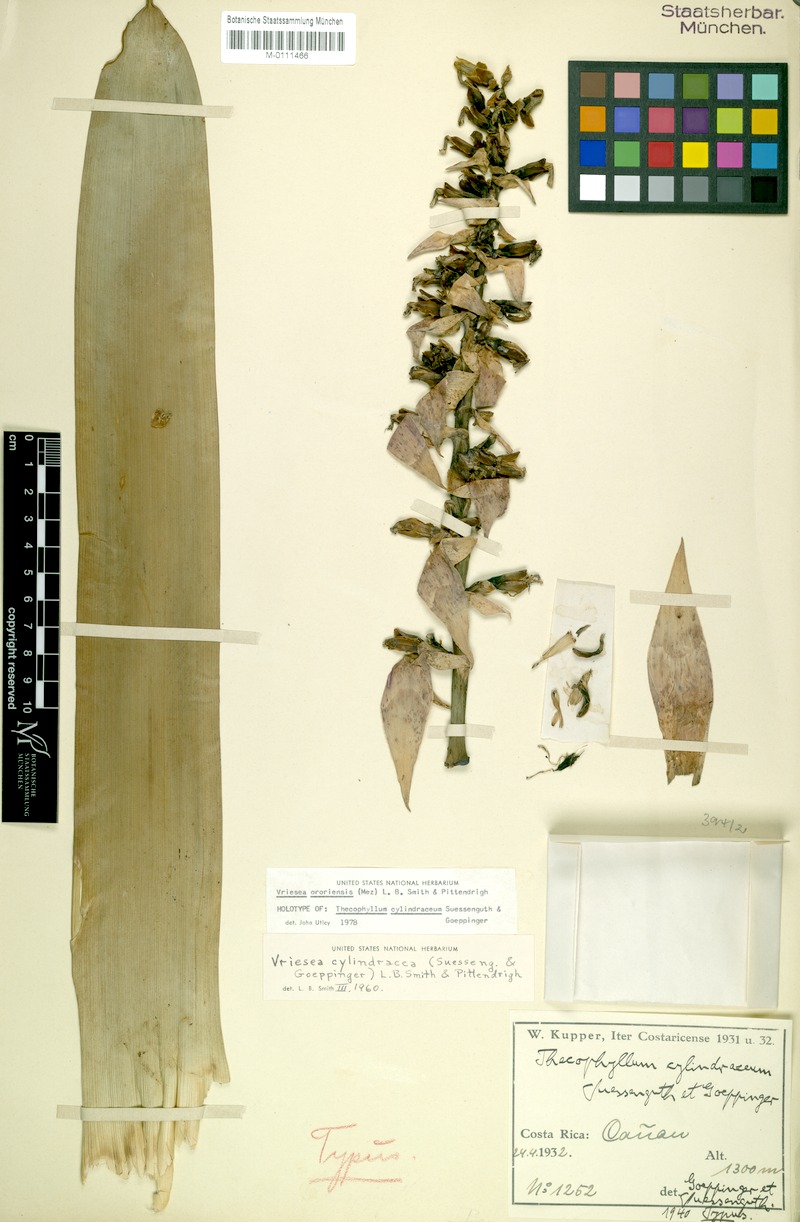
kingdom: Plantae
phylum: Tracheophyta
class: Liliopsida
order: Poales
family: Bromeliaceae
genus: Werauhia
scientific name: Werauhia ororiensis
